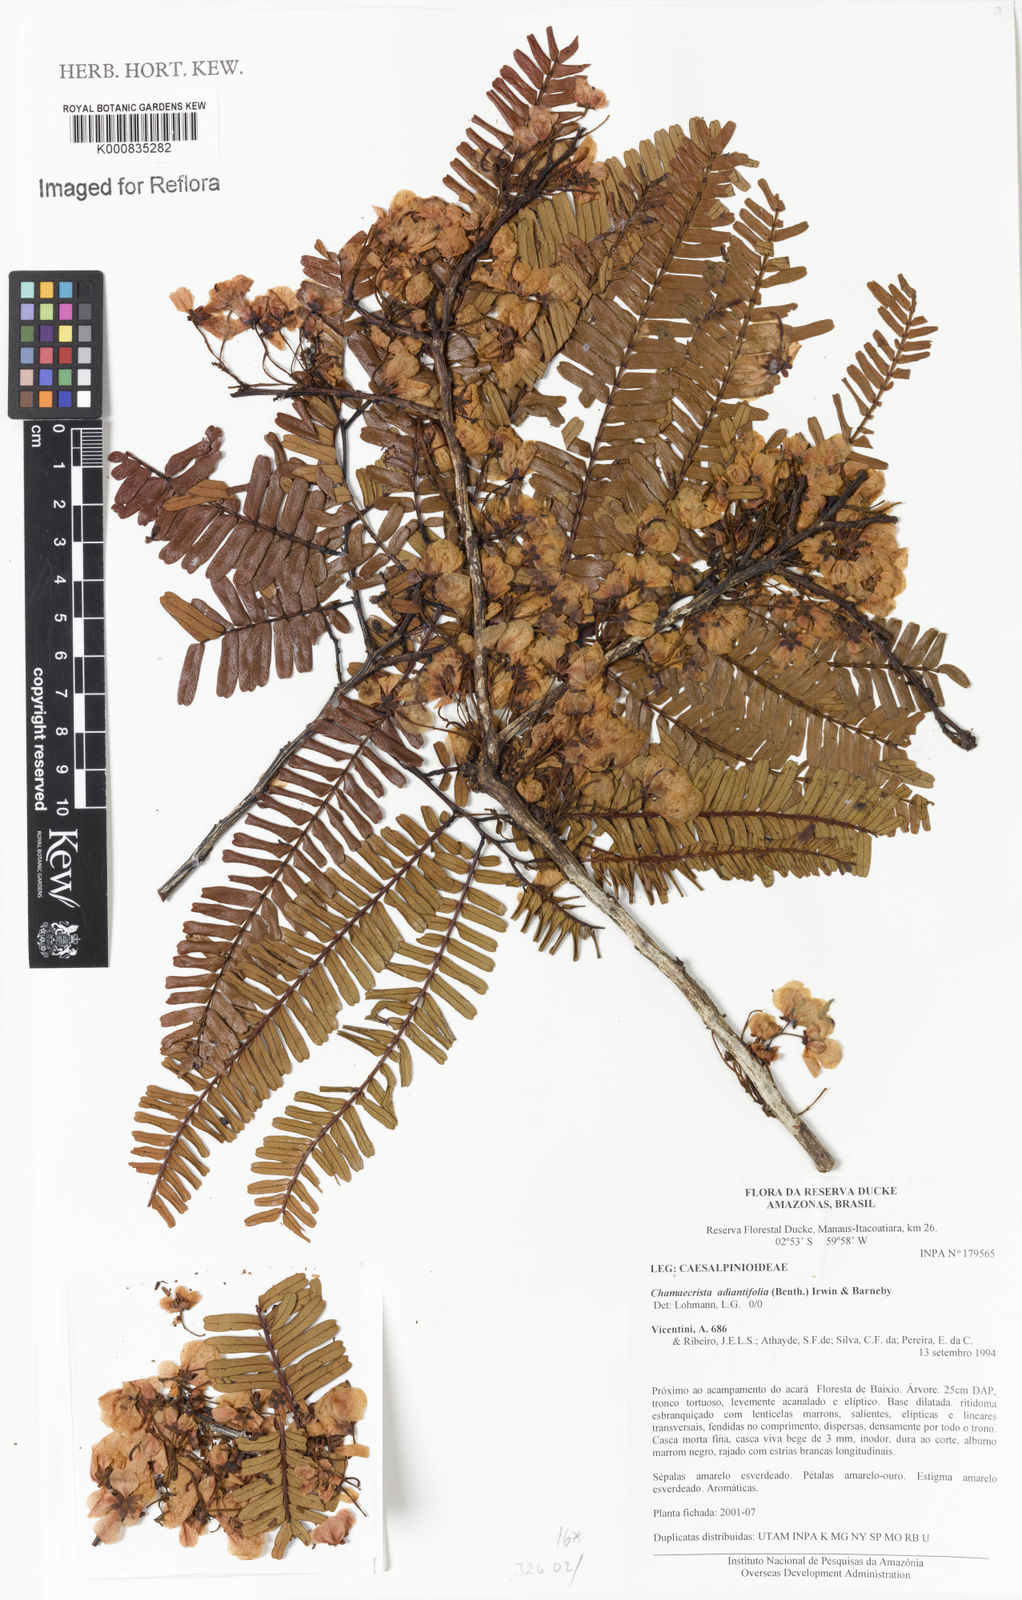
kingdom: Plantae
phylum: Tracheophyta
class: Magnoliopsida
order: Fabales
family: Fabaceae
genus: Chamaecrista
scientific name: Chamaecrista adiantifolia
